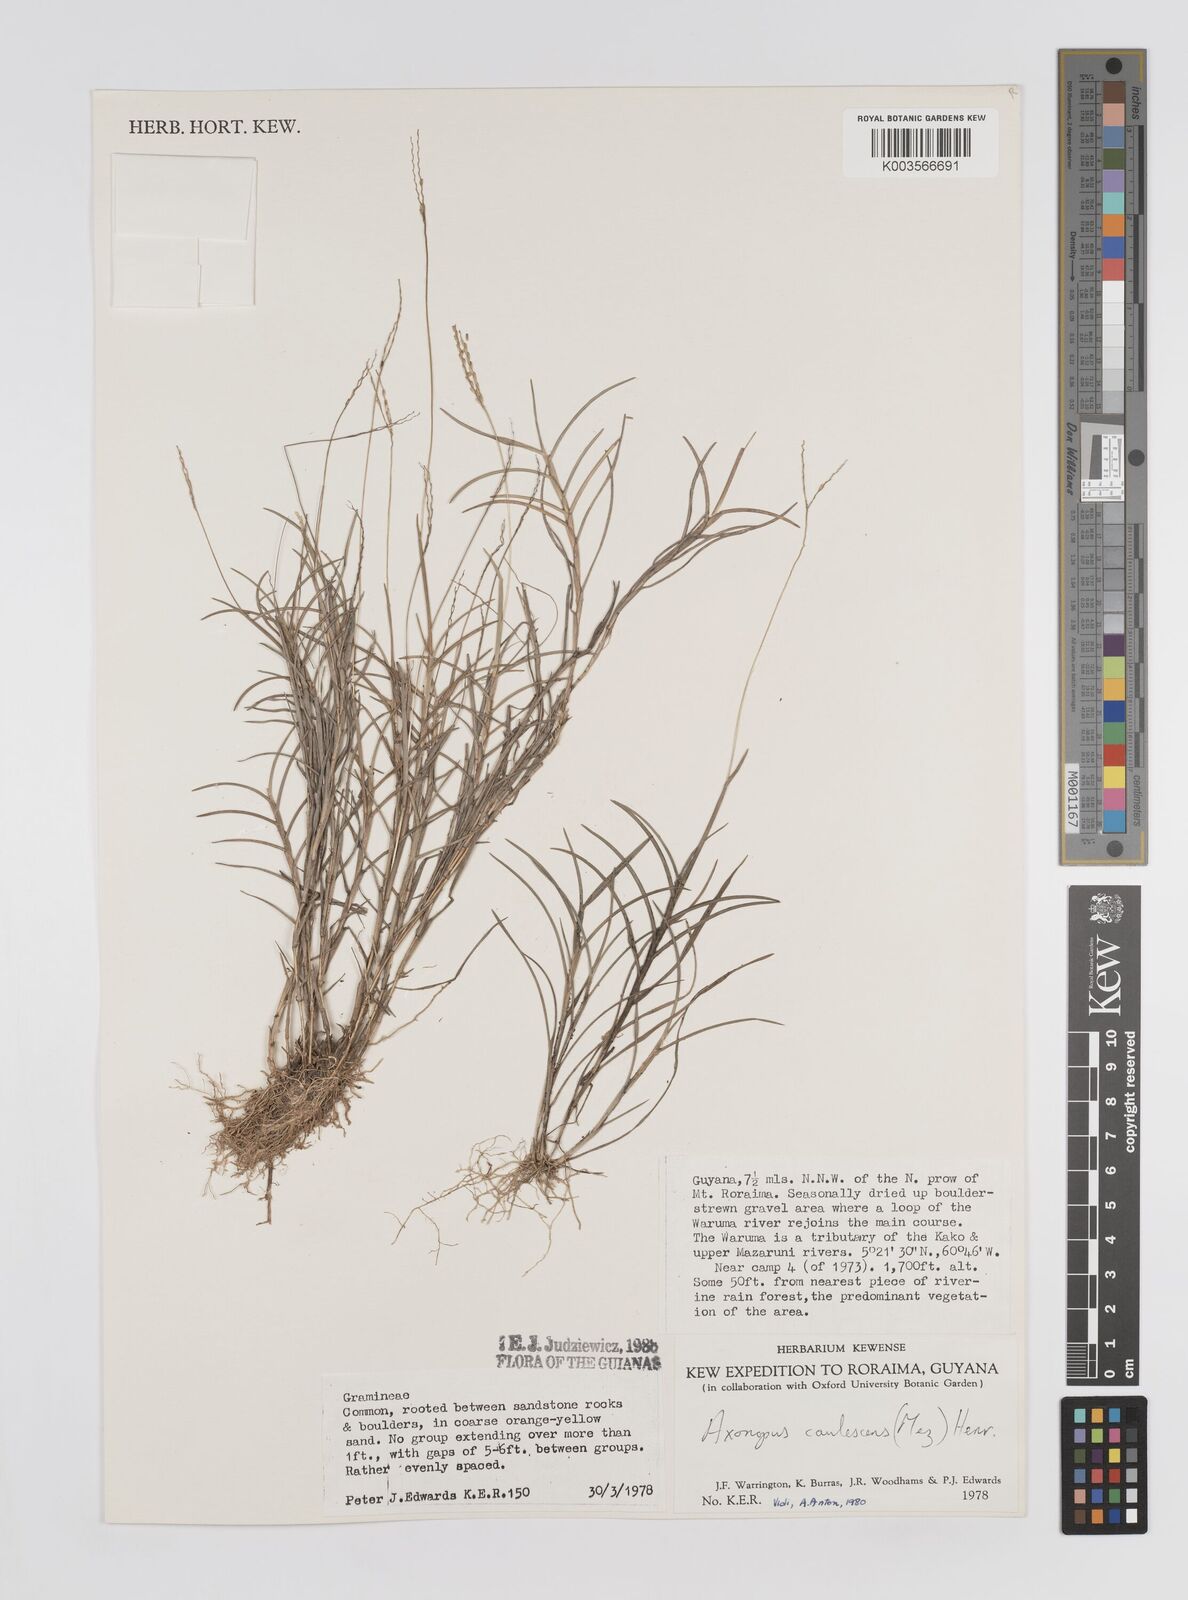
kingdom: Plantae
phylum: Tracheophyta
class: Liliopsida
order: Poales
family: Poaceae
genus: Axonopus
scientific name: Axonopus caulescens
